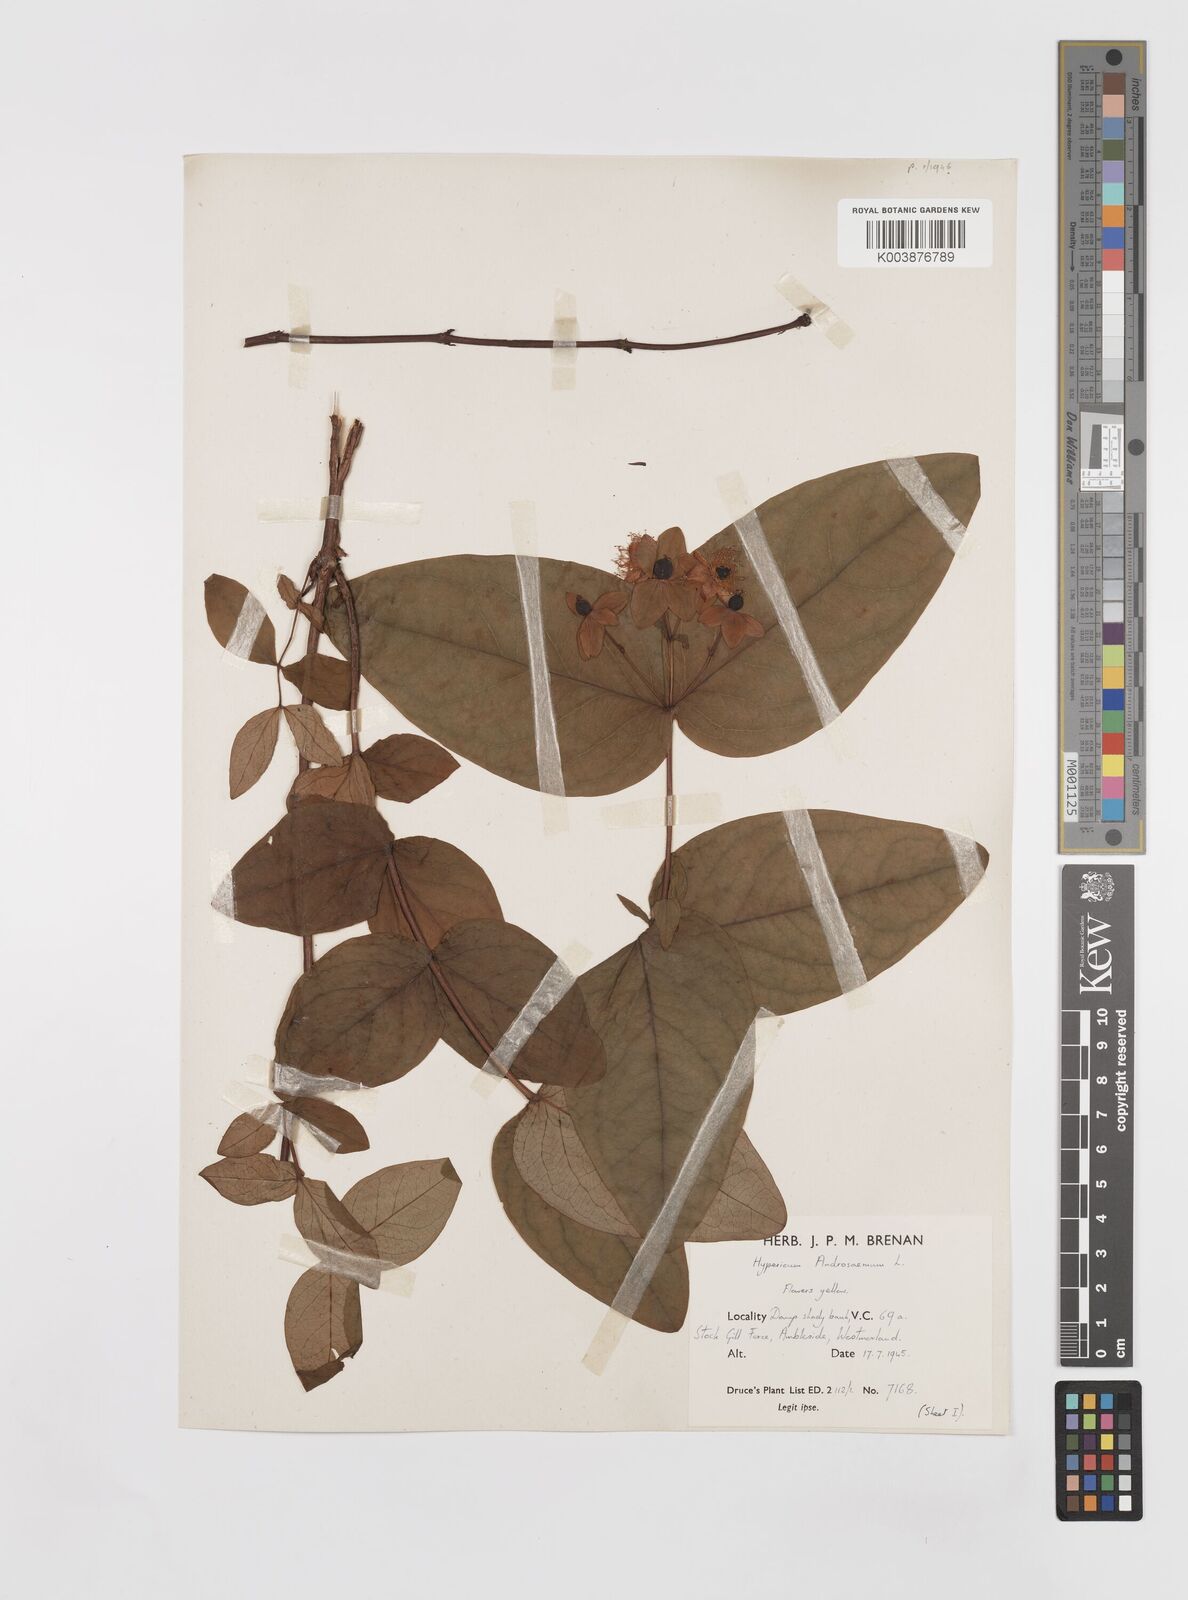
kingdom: Plantae
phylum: Tracheophyta
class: Magnoliopsida
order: Malpighiales
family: Hypericaceae
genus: Hypericum
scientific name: Hypericum androsaemum
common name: Sweet-amber
